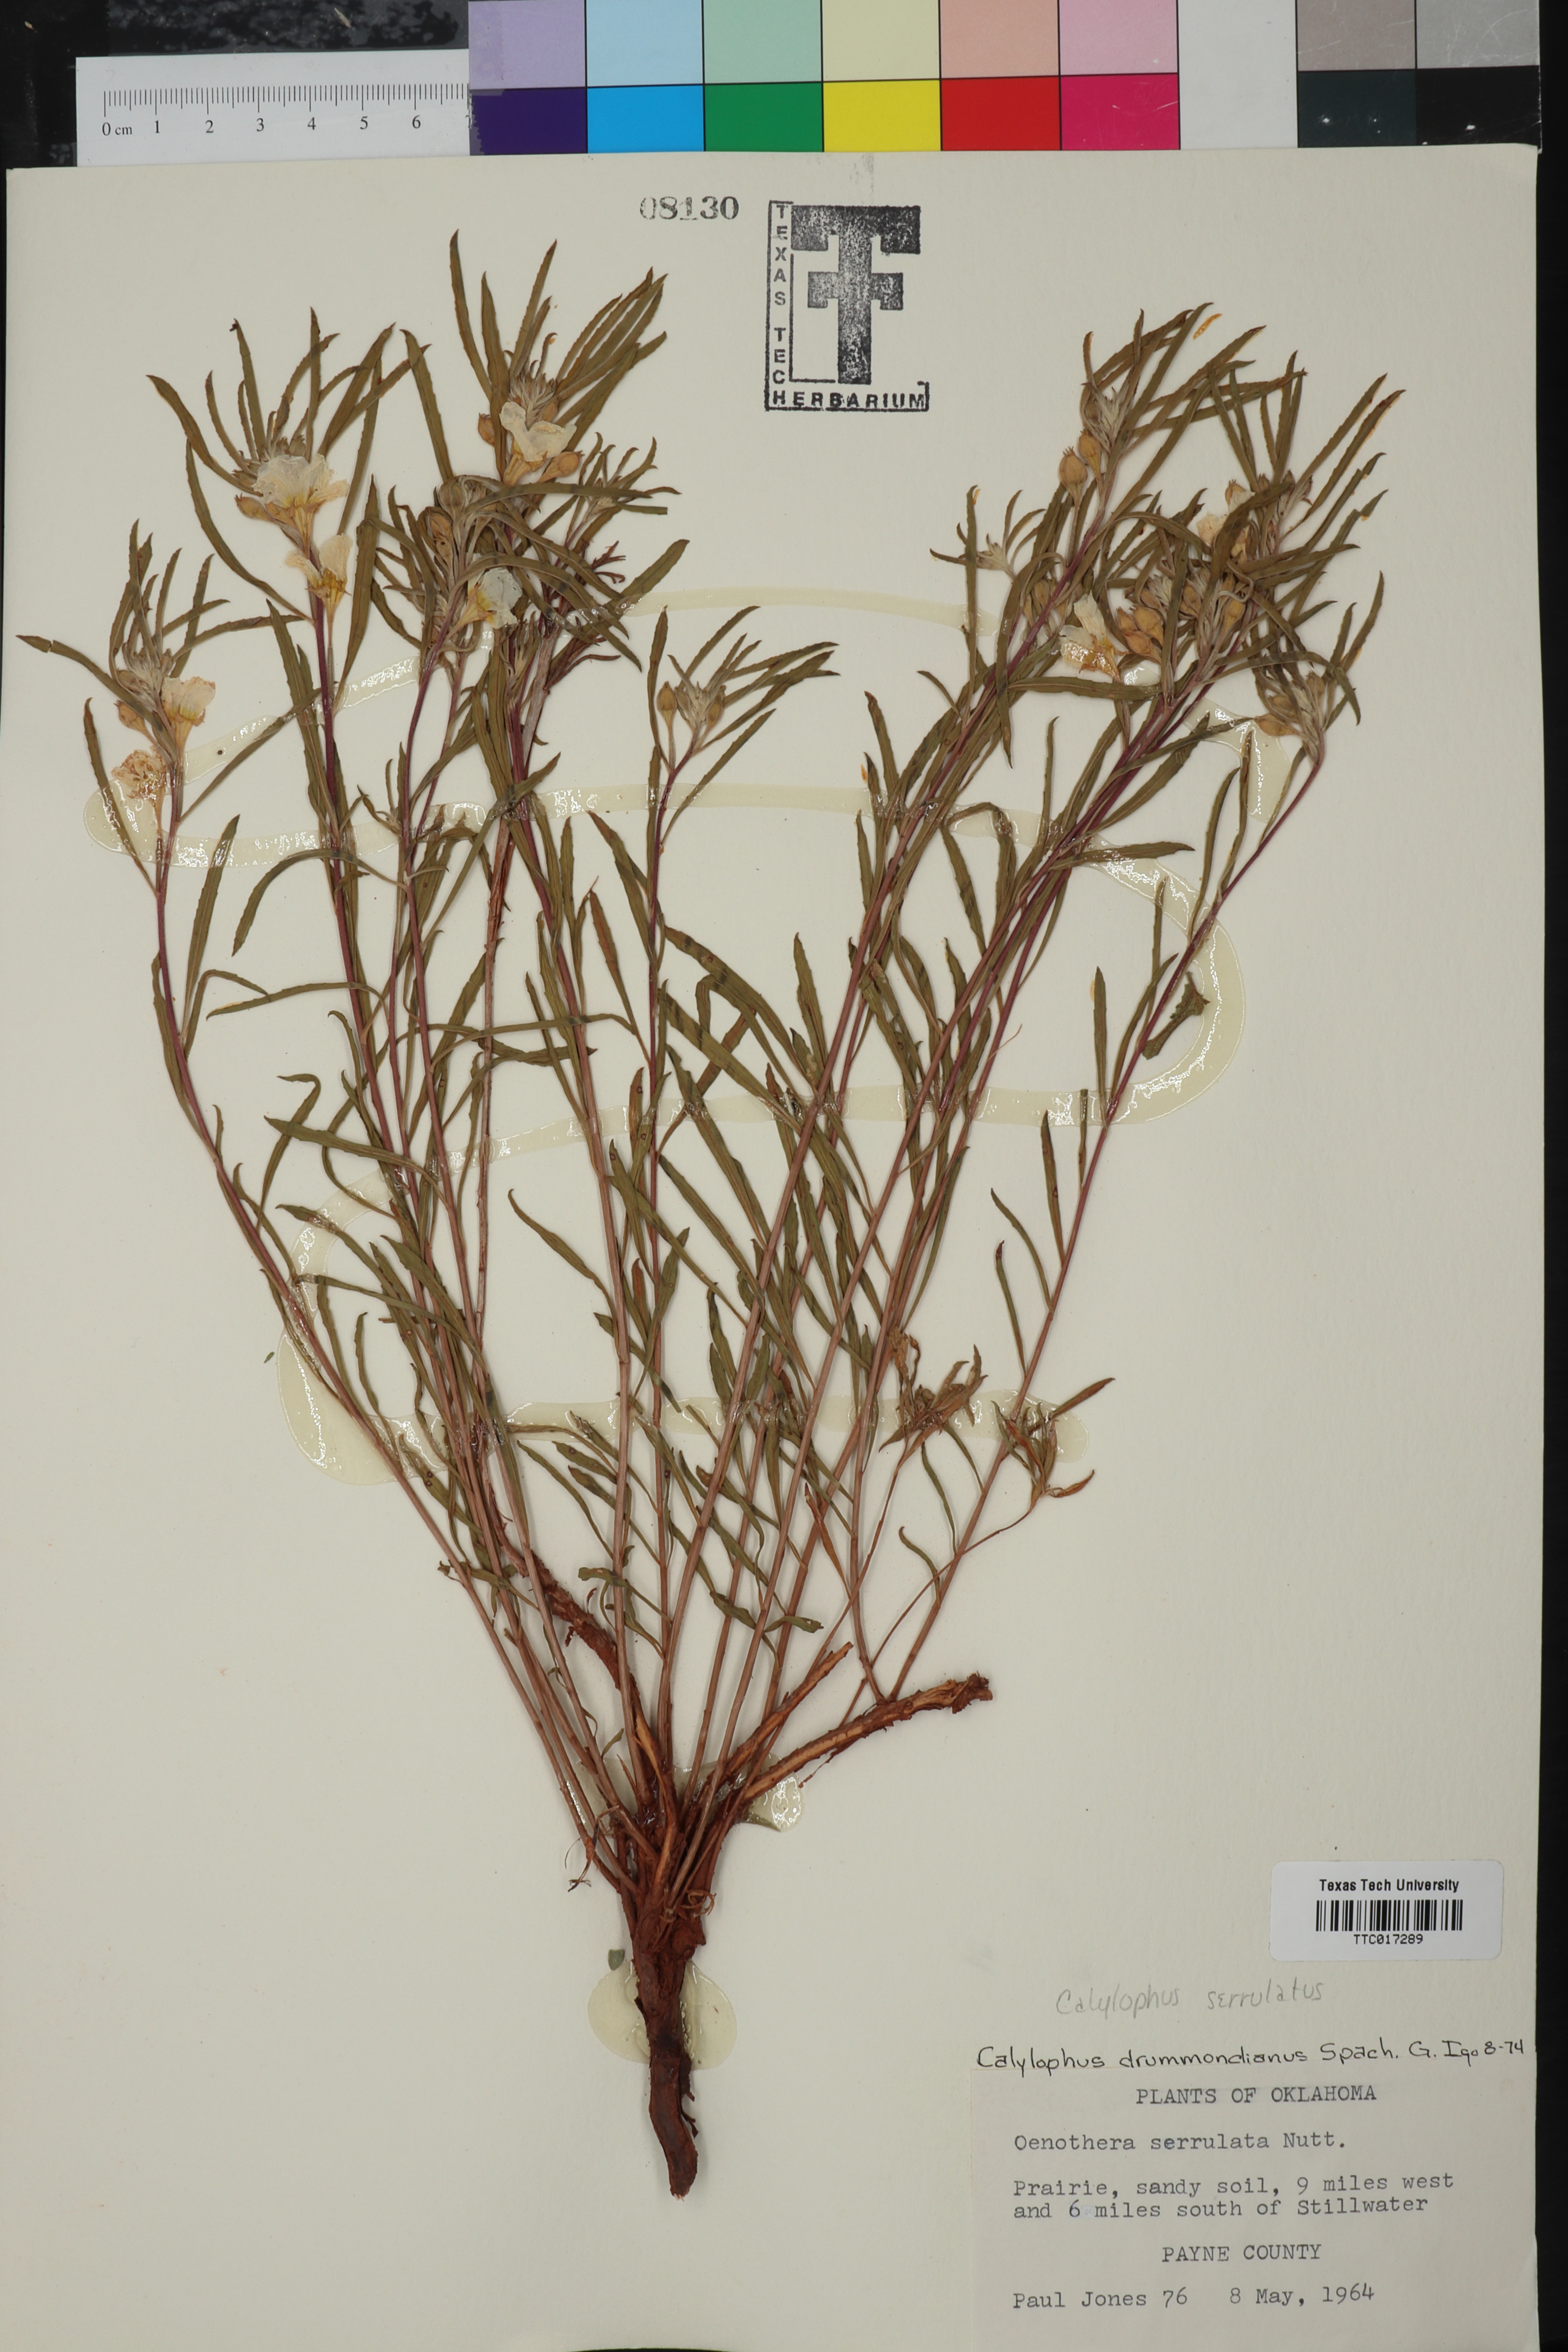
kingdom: Plantae
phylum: Tracheophyta
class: Magnoliopsida
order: Myrtales
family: Onagraceae
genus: Oenothera
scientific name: Oenothera serrulata
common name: Half-shrub calylophus
